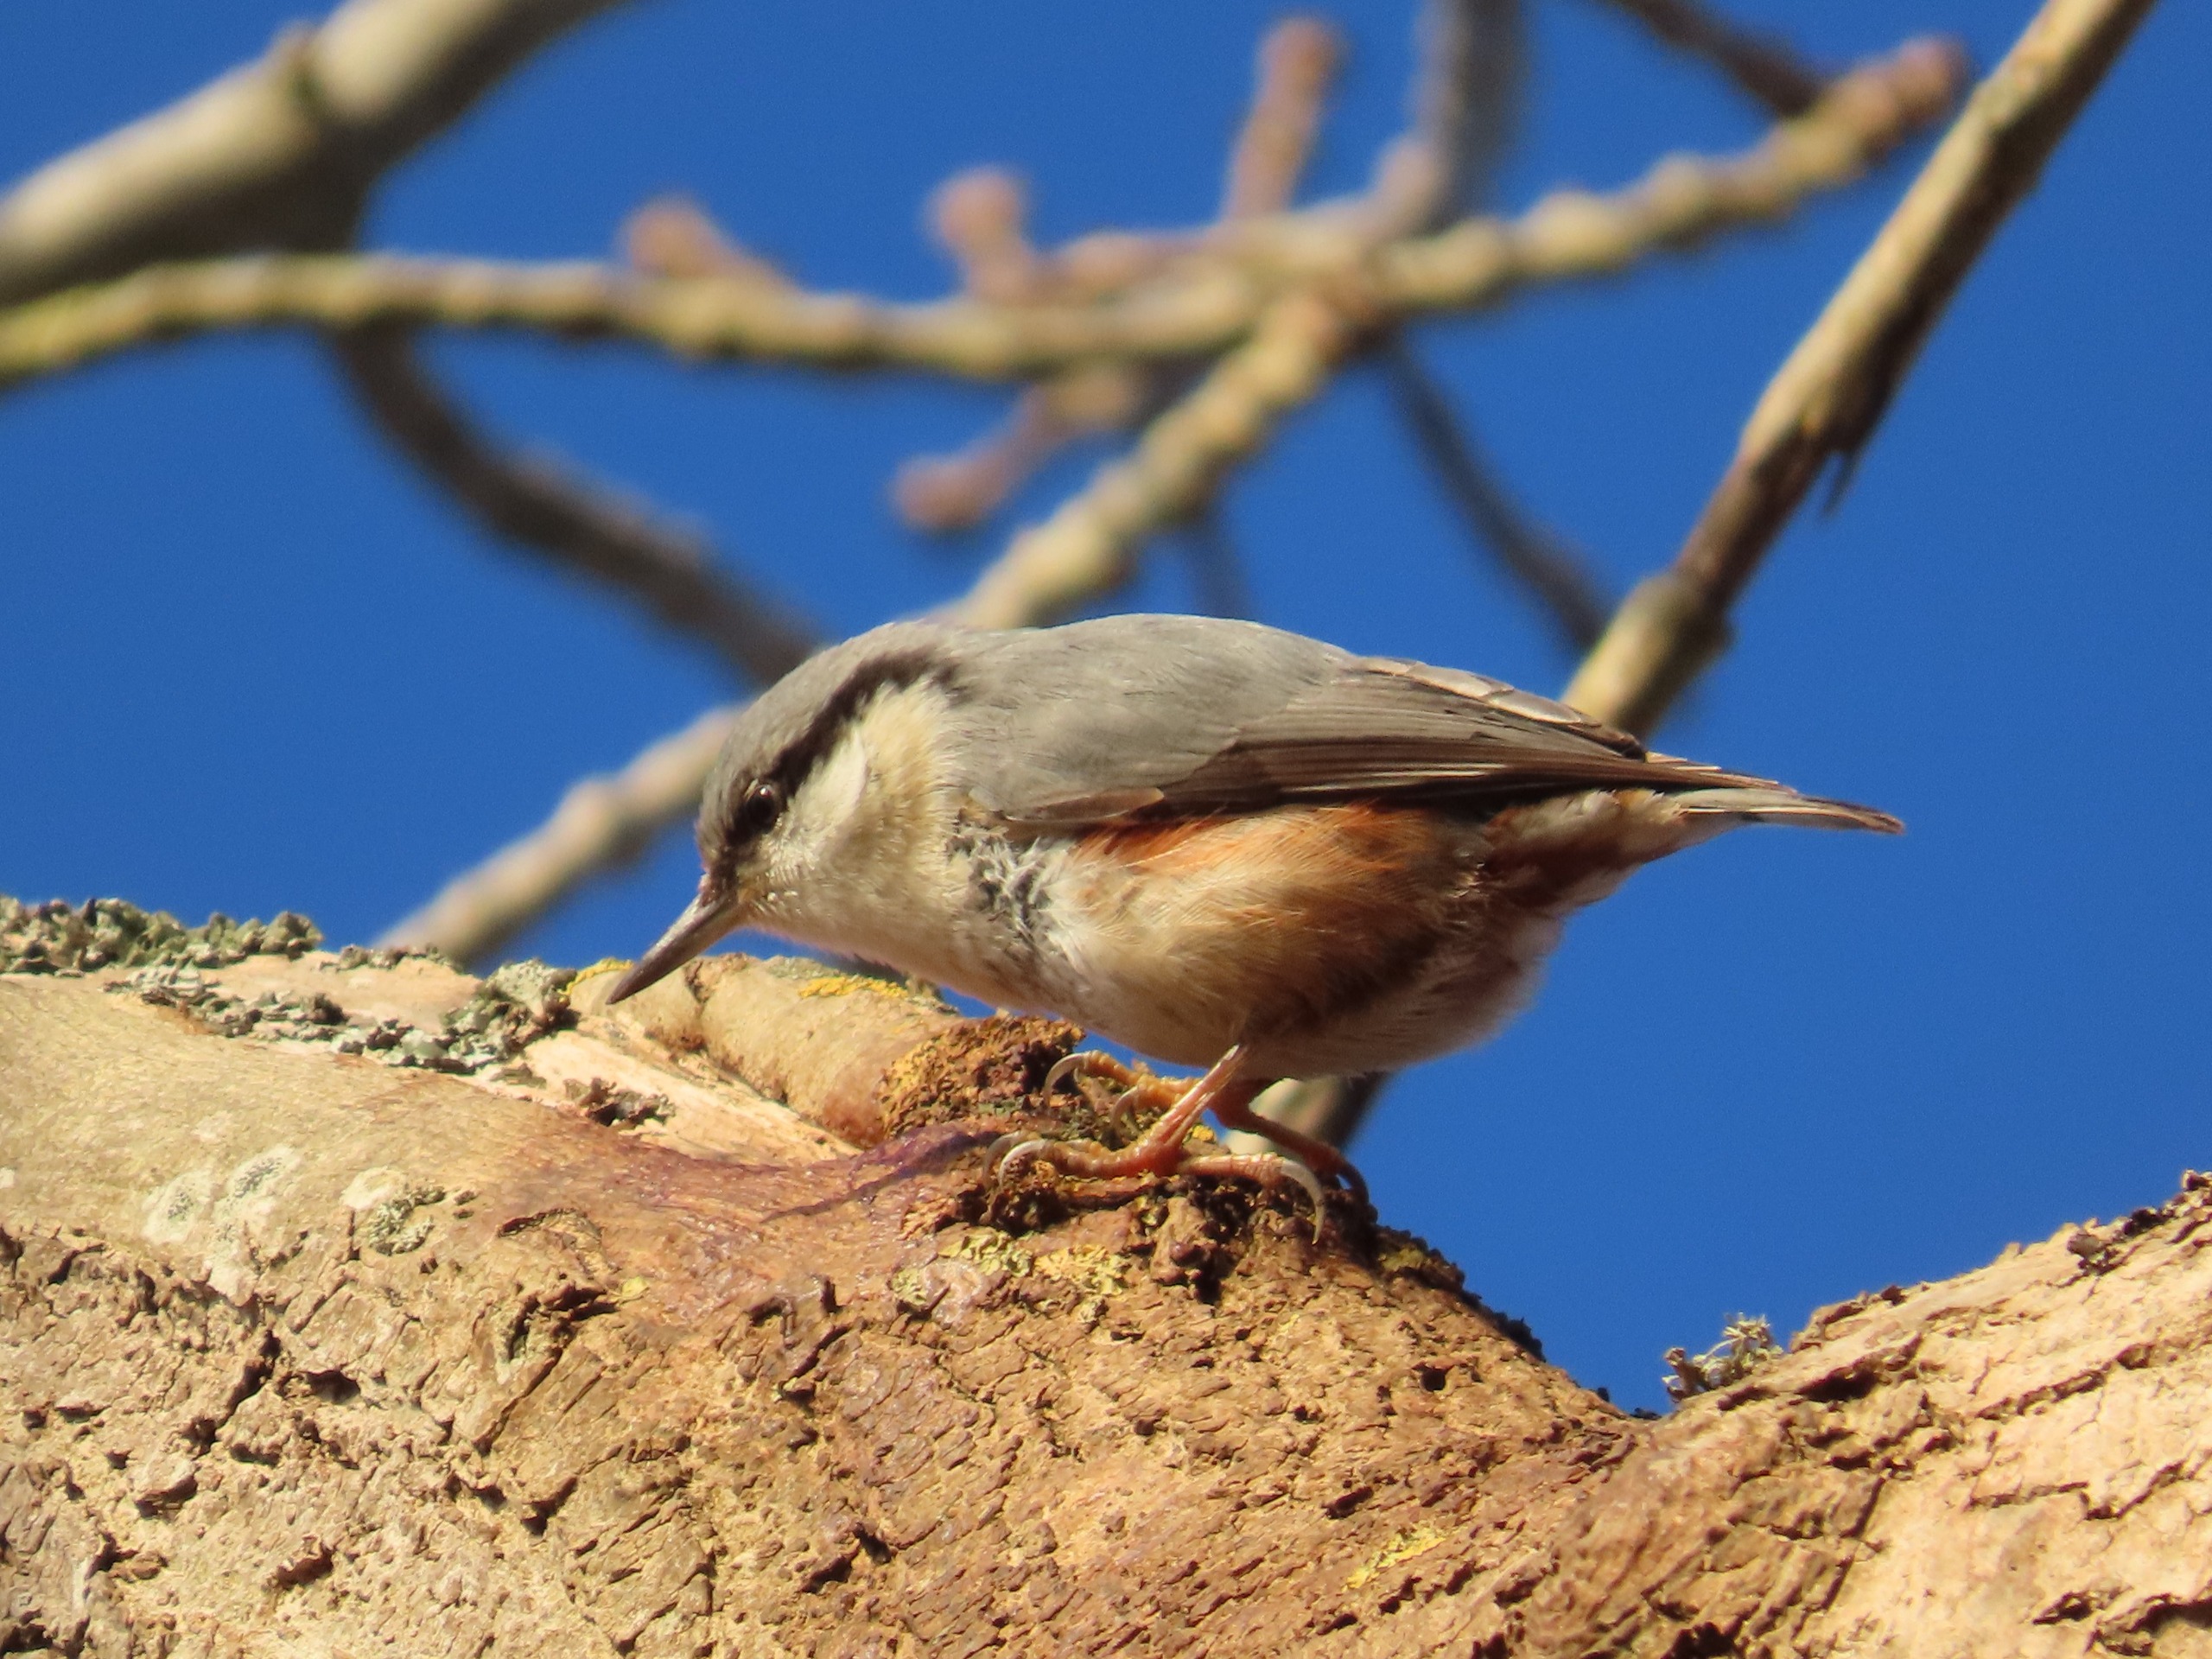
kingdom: Animalia
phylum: Chordata
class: Aves
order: Passeriformes
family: Sittidae
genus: Sitta
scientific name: Sitta europaea
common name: Spætmejse
